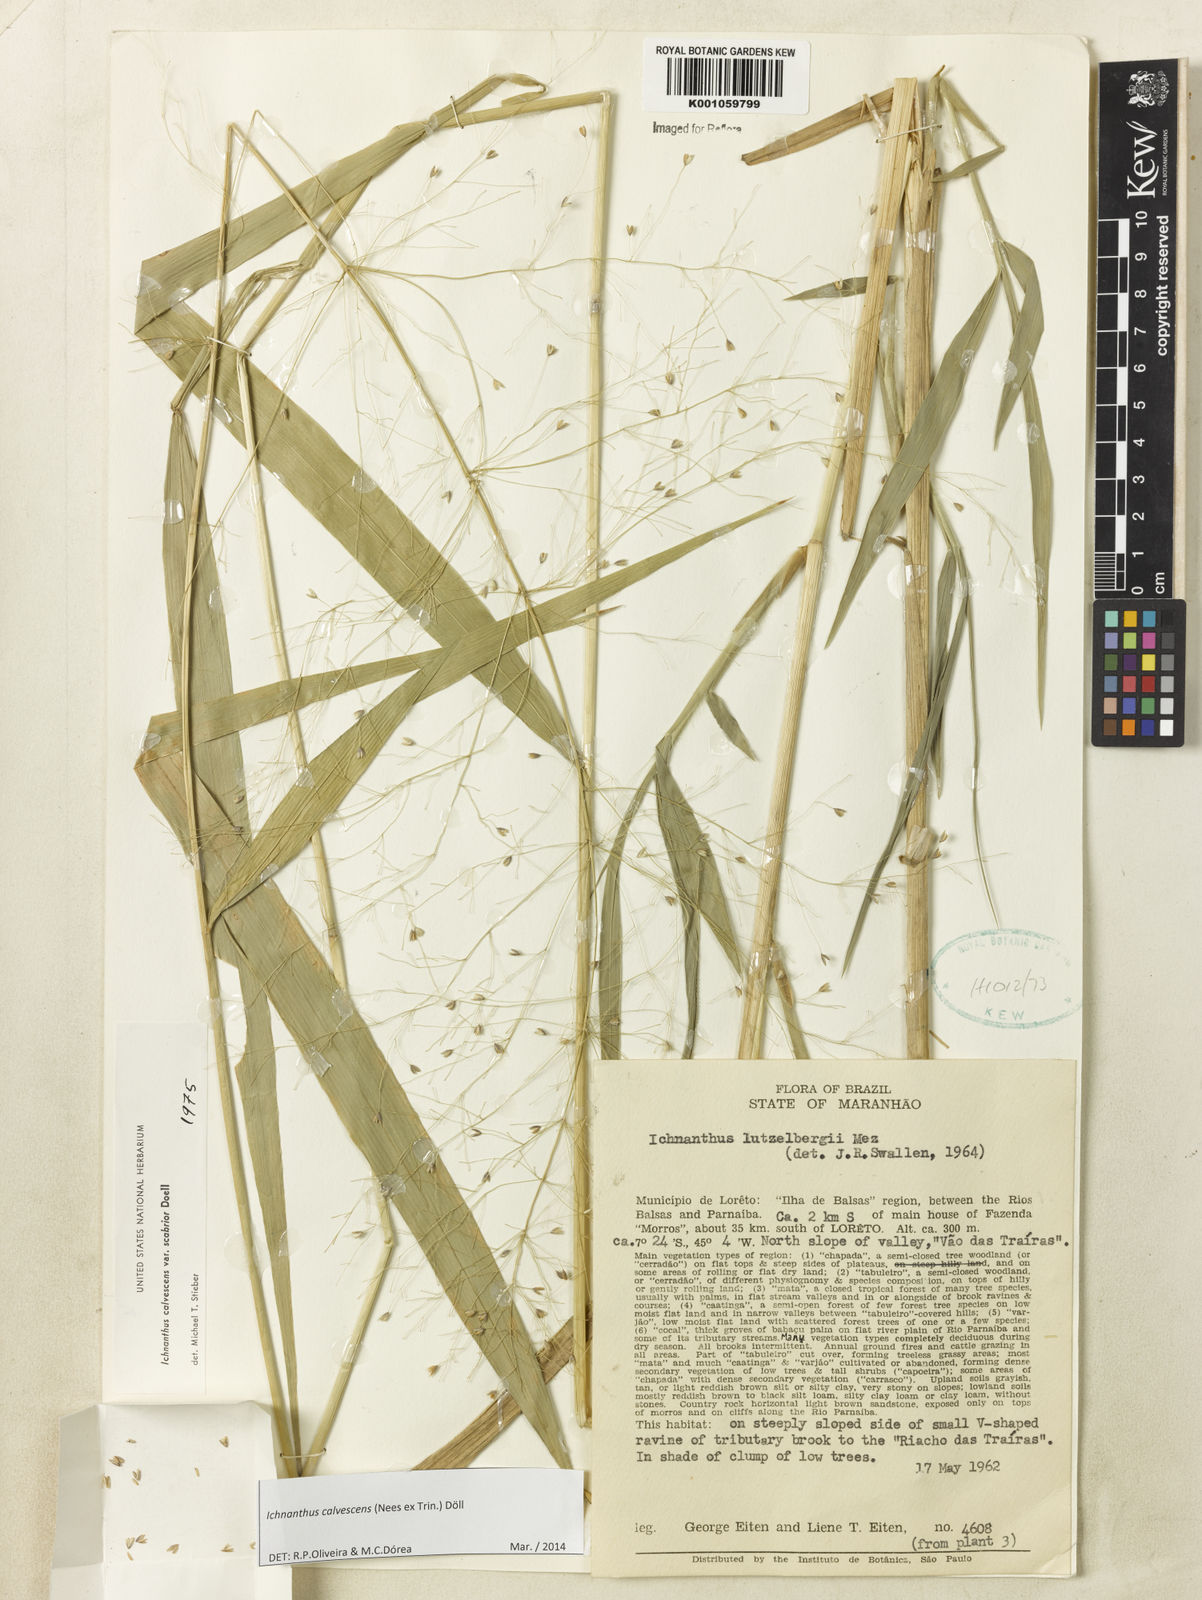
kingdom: Plantae
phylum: Tracheophyta
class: Liliopsida
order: Poales
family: Poaceae
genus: Ichnanthus
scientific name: Ichnanthus
